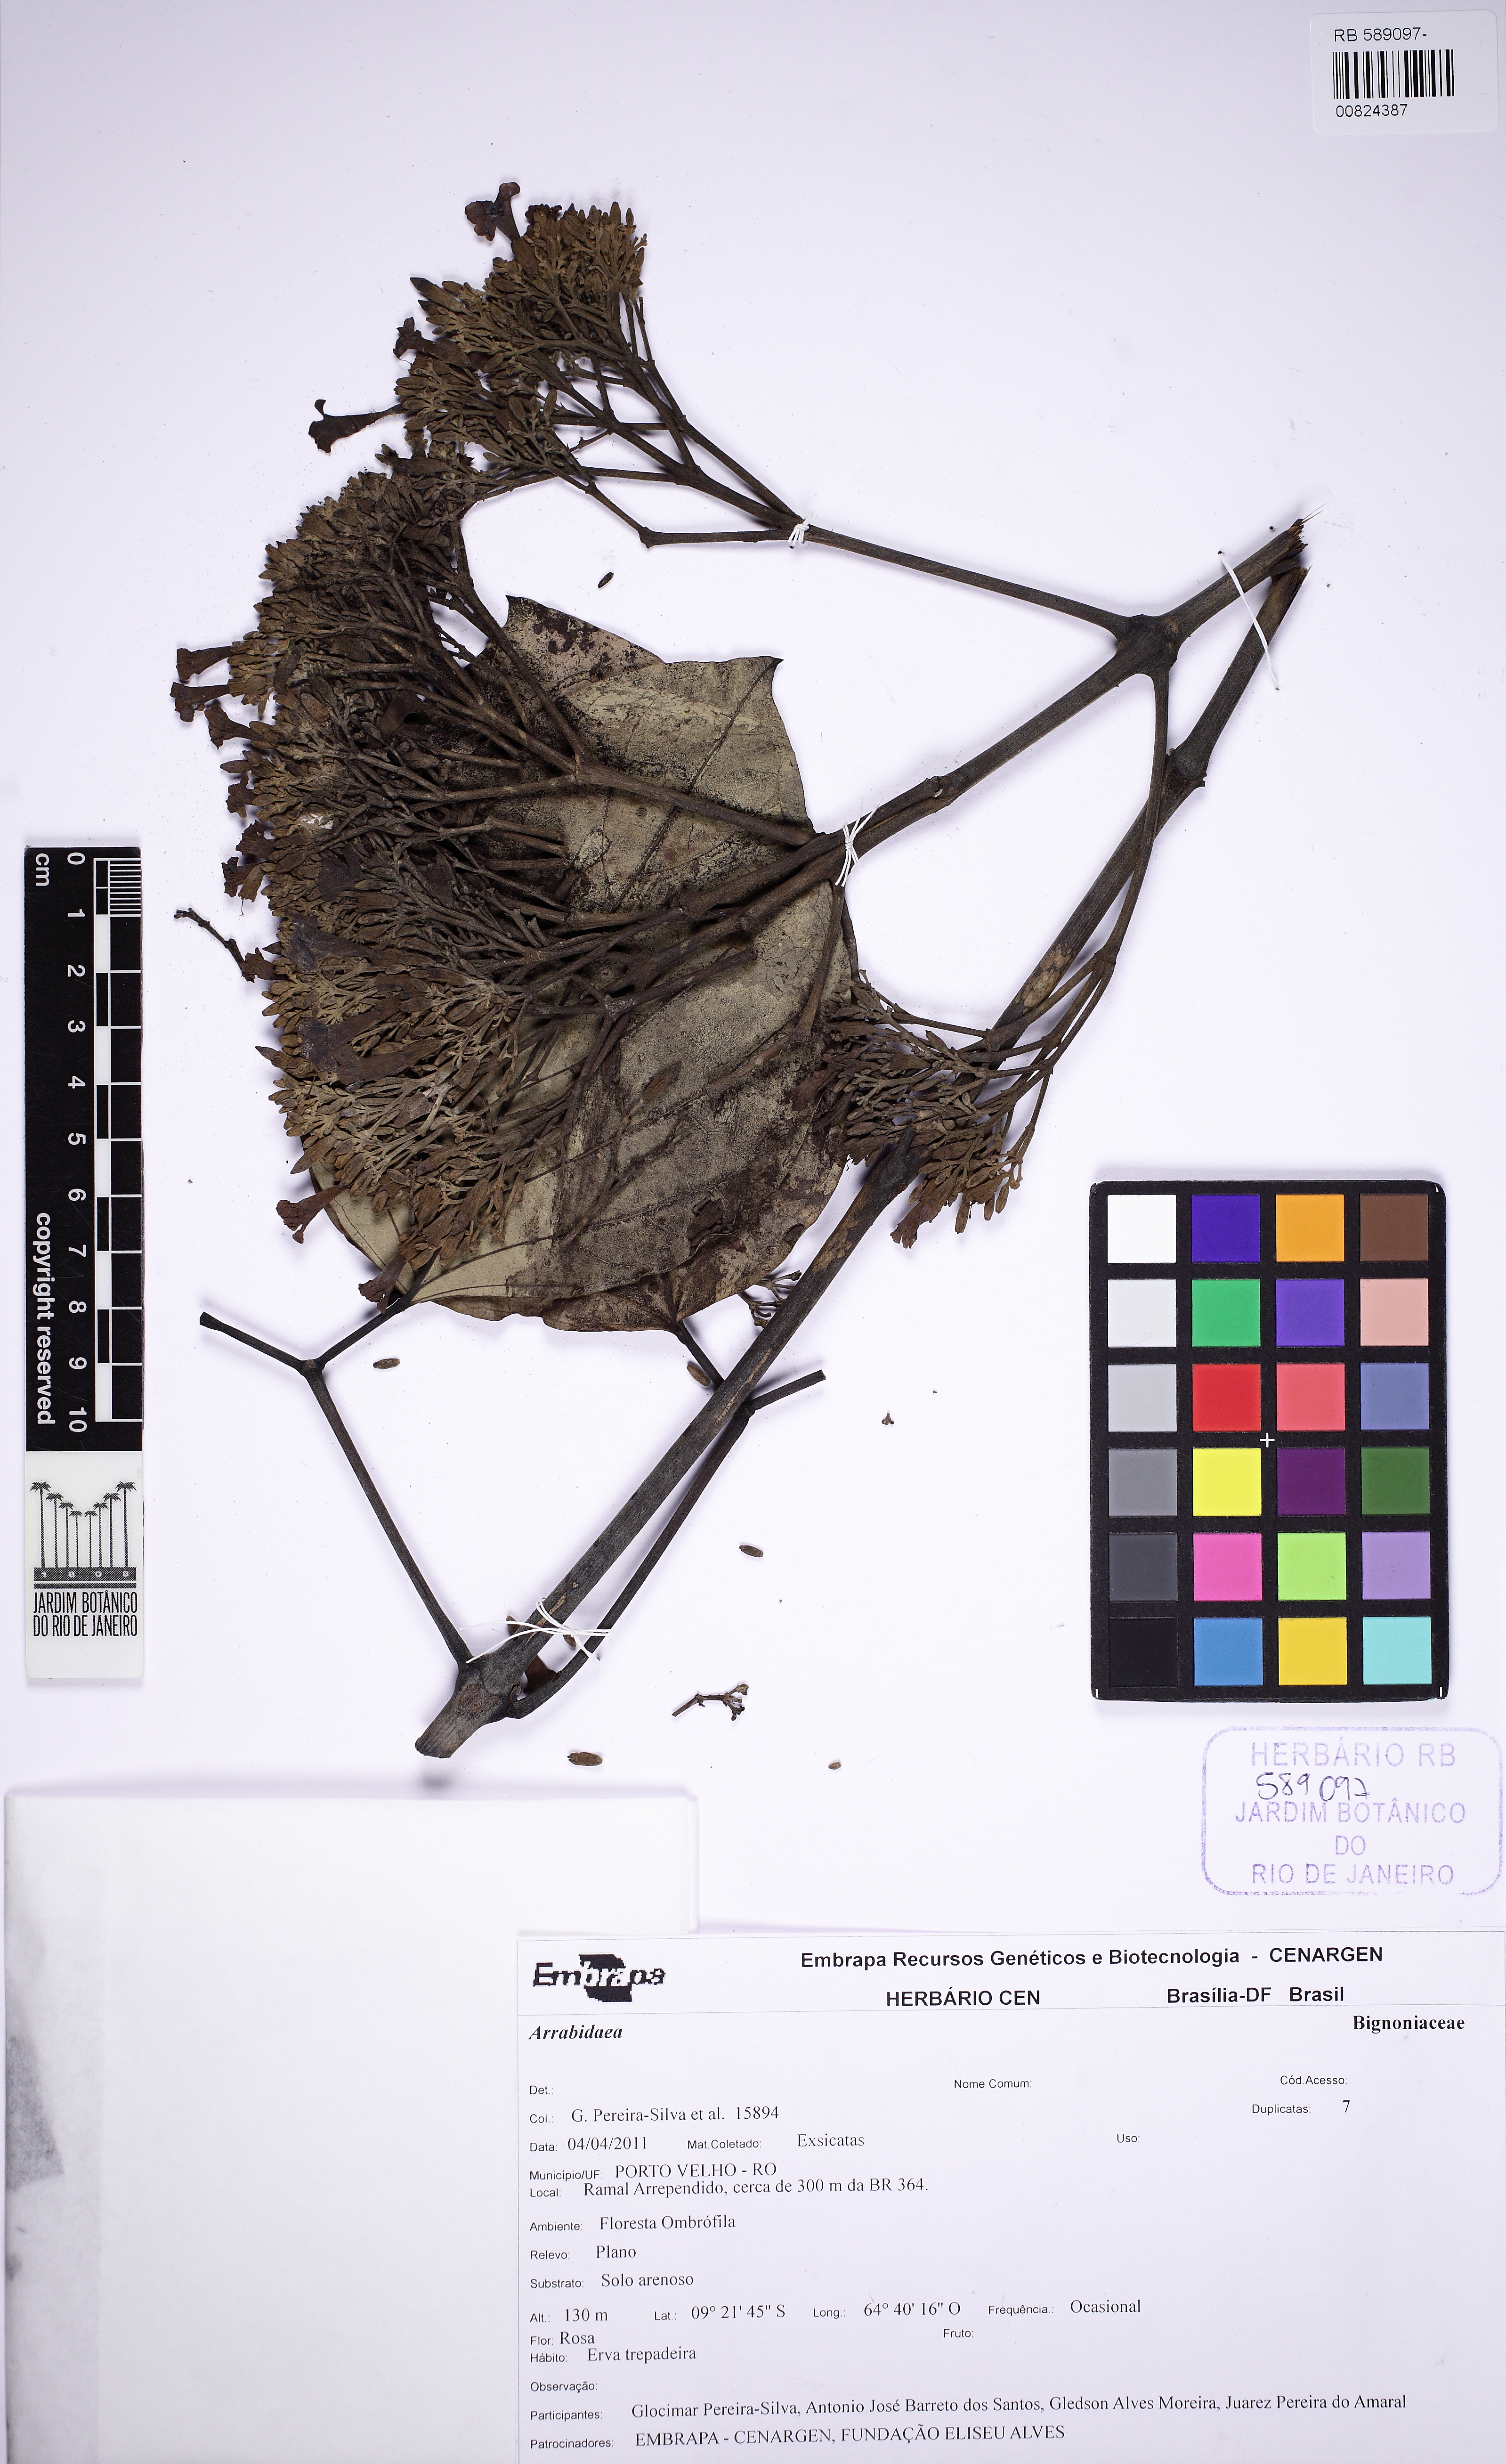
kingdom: Plantae
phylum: Tracheophyta
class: Magnoliopsida
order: Lamiales
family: Bignoniaceae
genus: Fridericia
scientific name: Fridericia trailii
